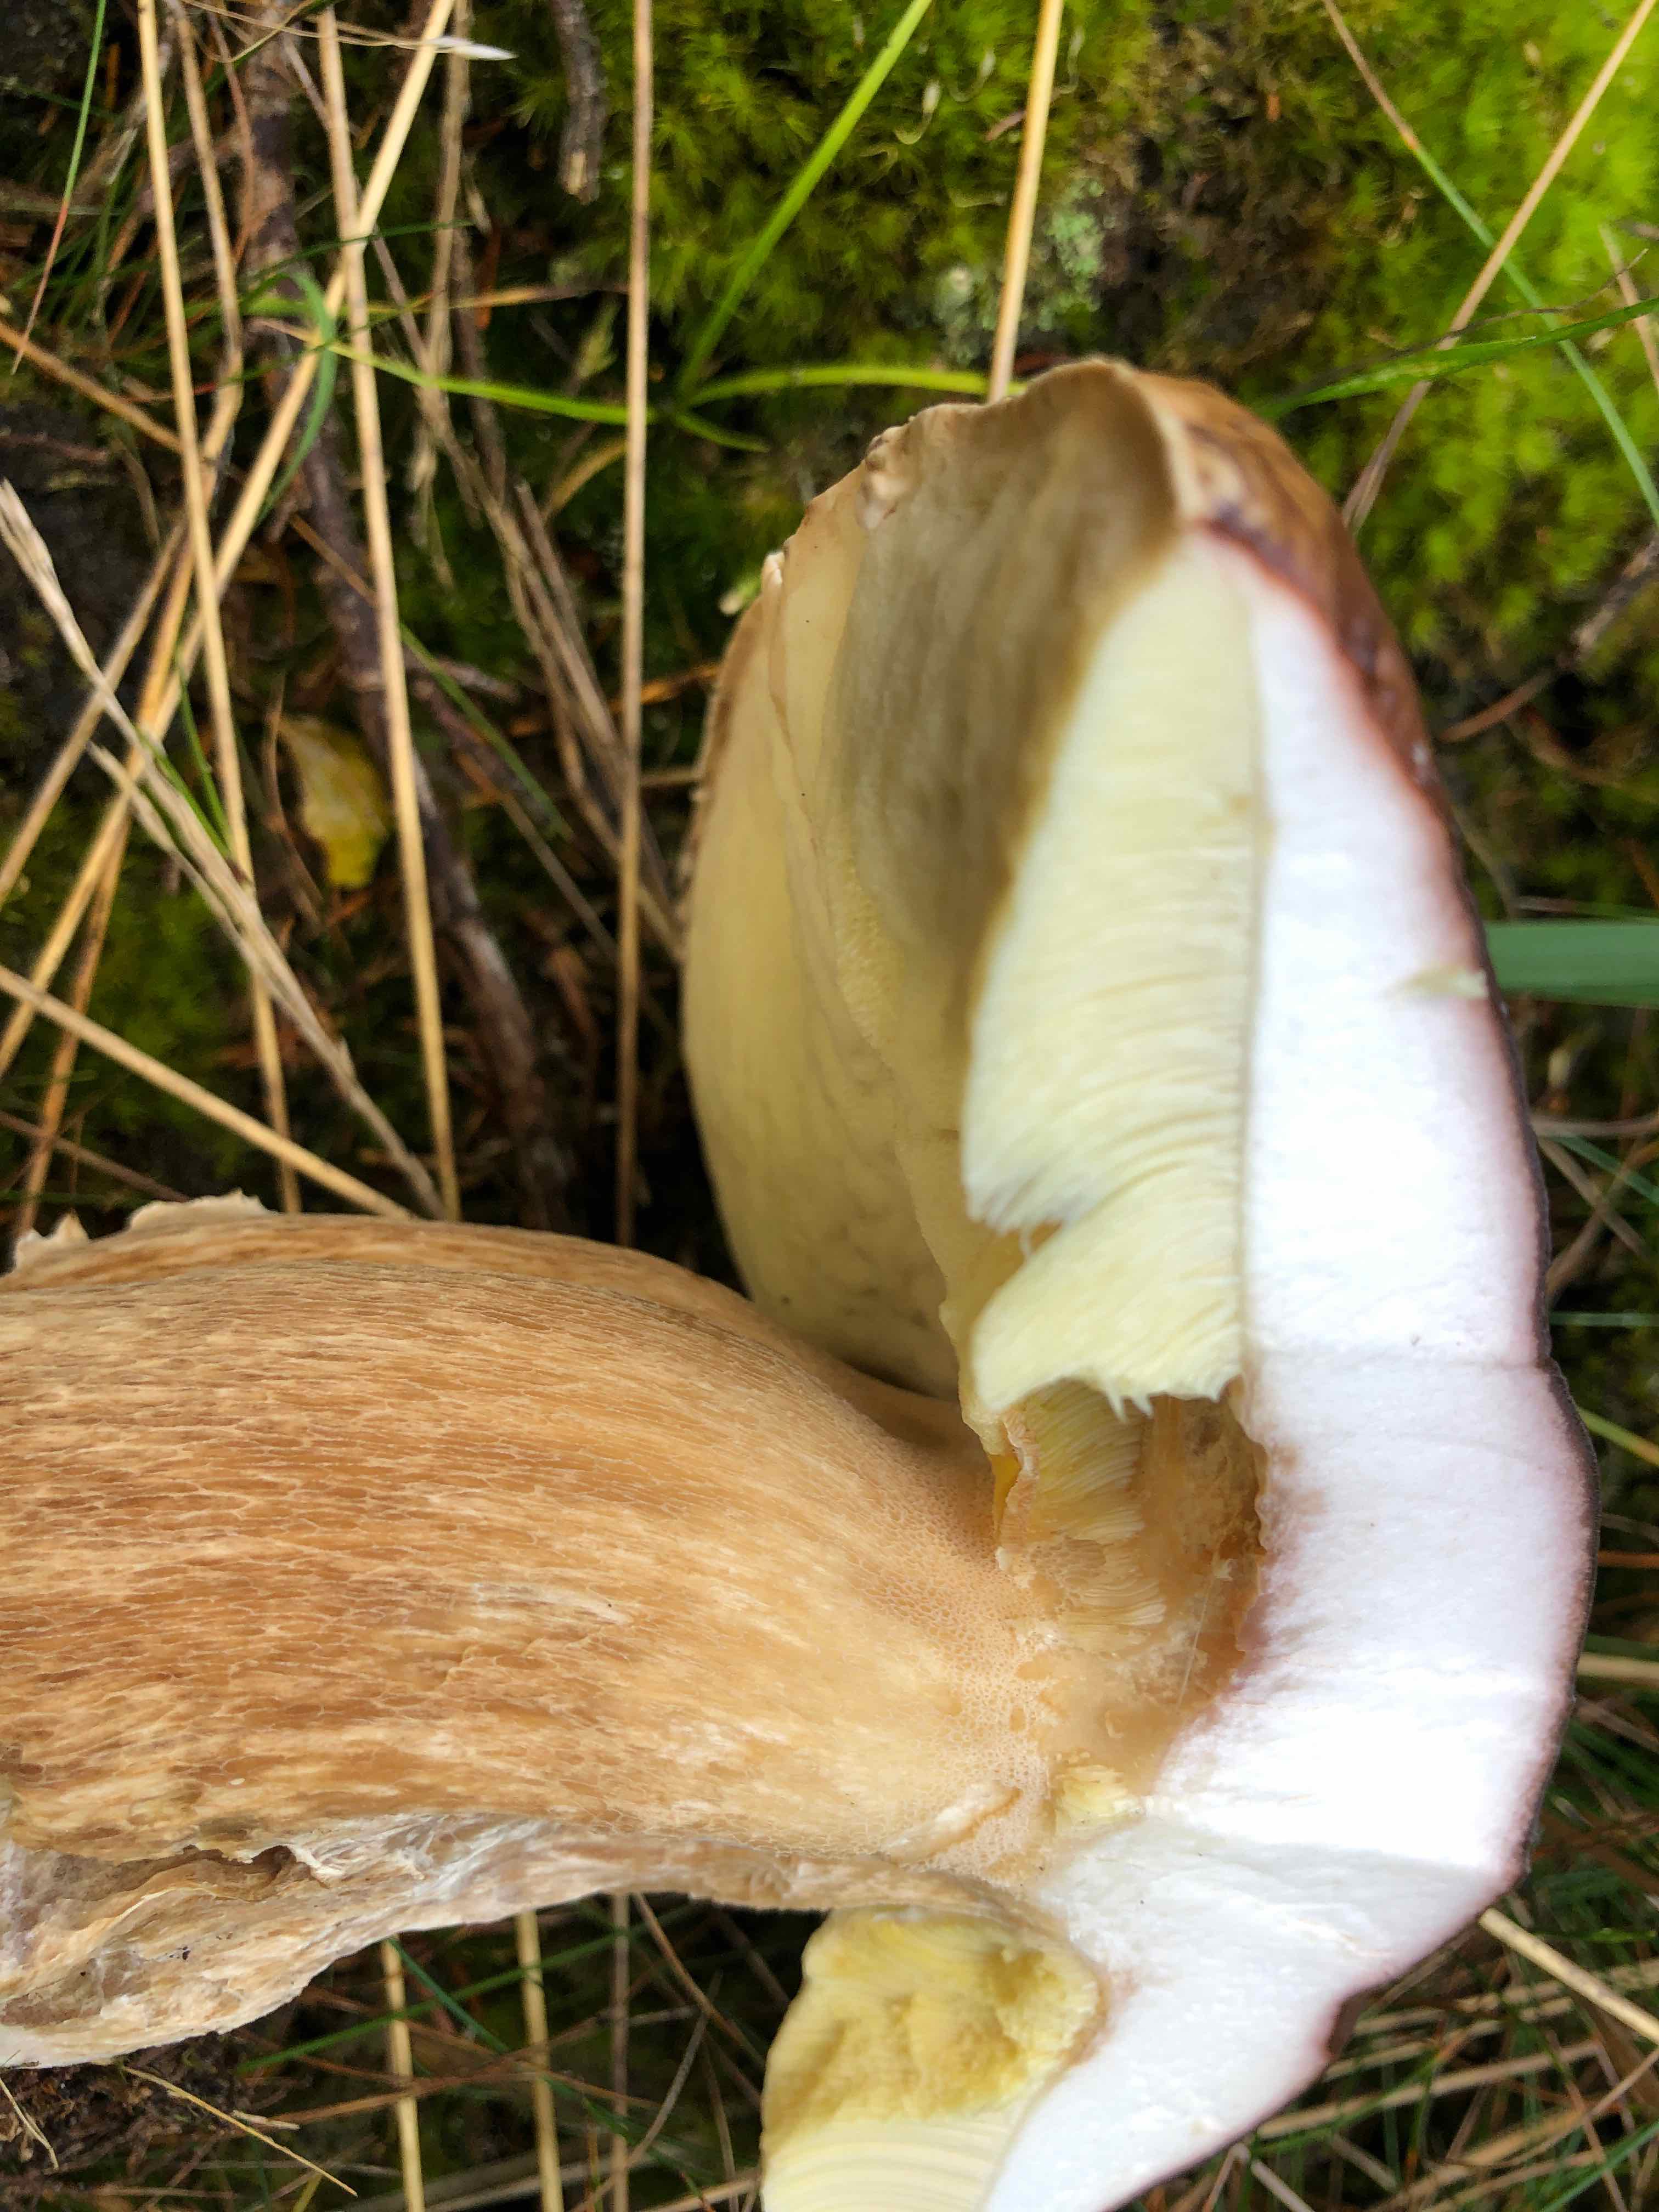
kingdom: Fungi
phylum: Basidiomycota
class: Agaricomycetes
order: Boletales
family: Boletaceae
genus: Boletus
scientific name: Boletus edulis
